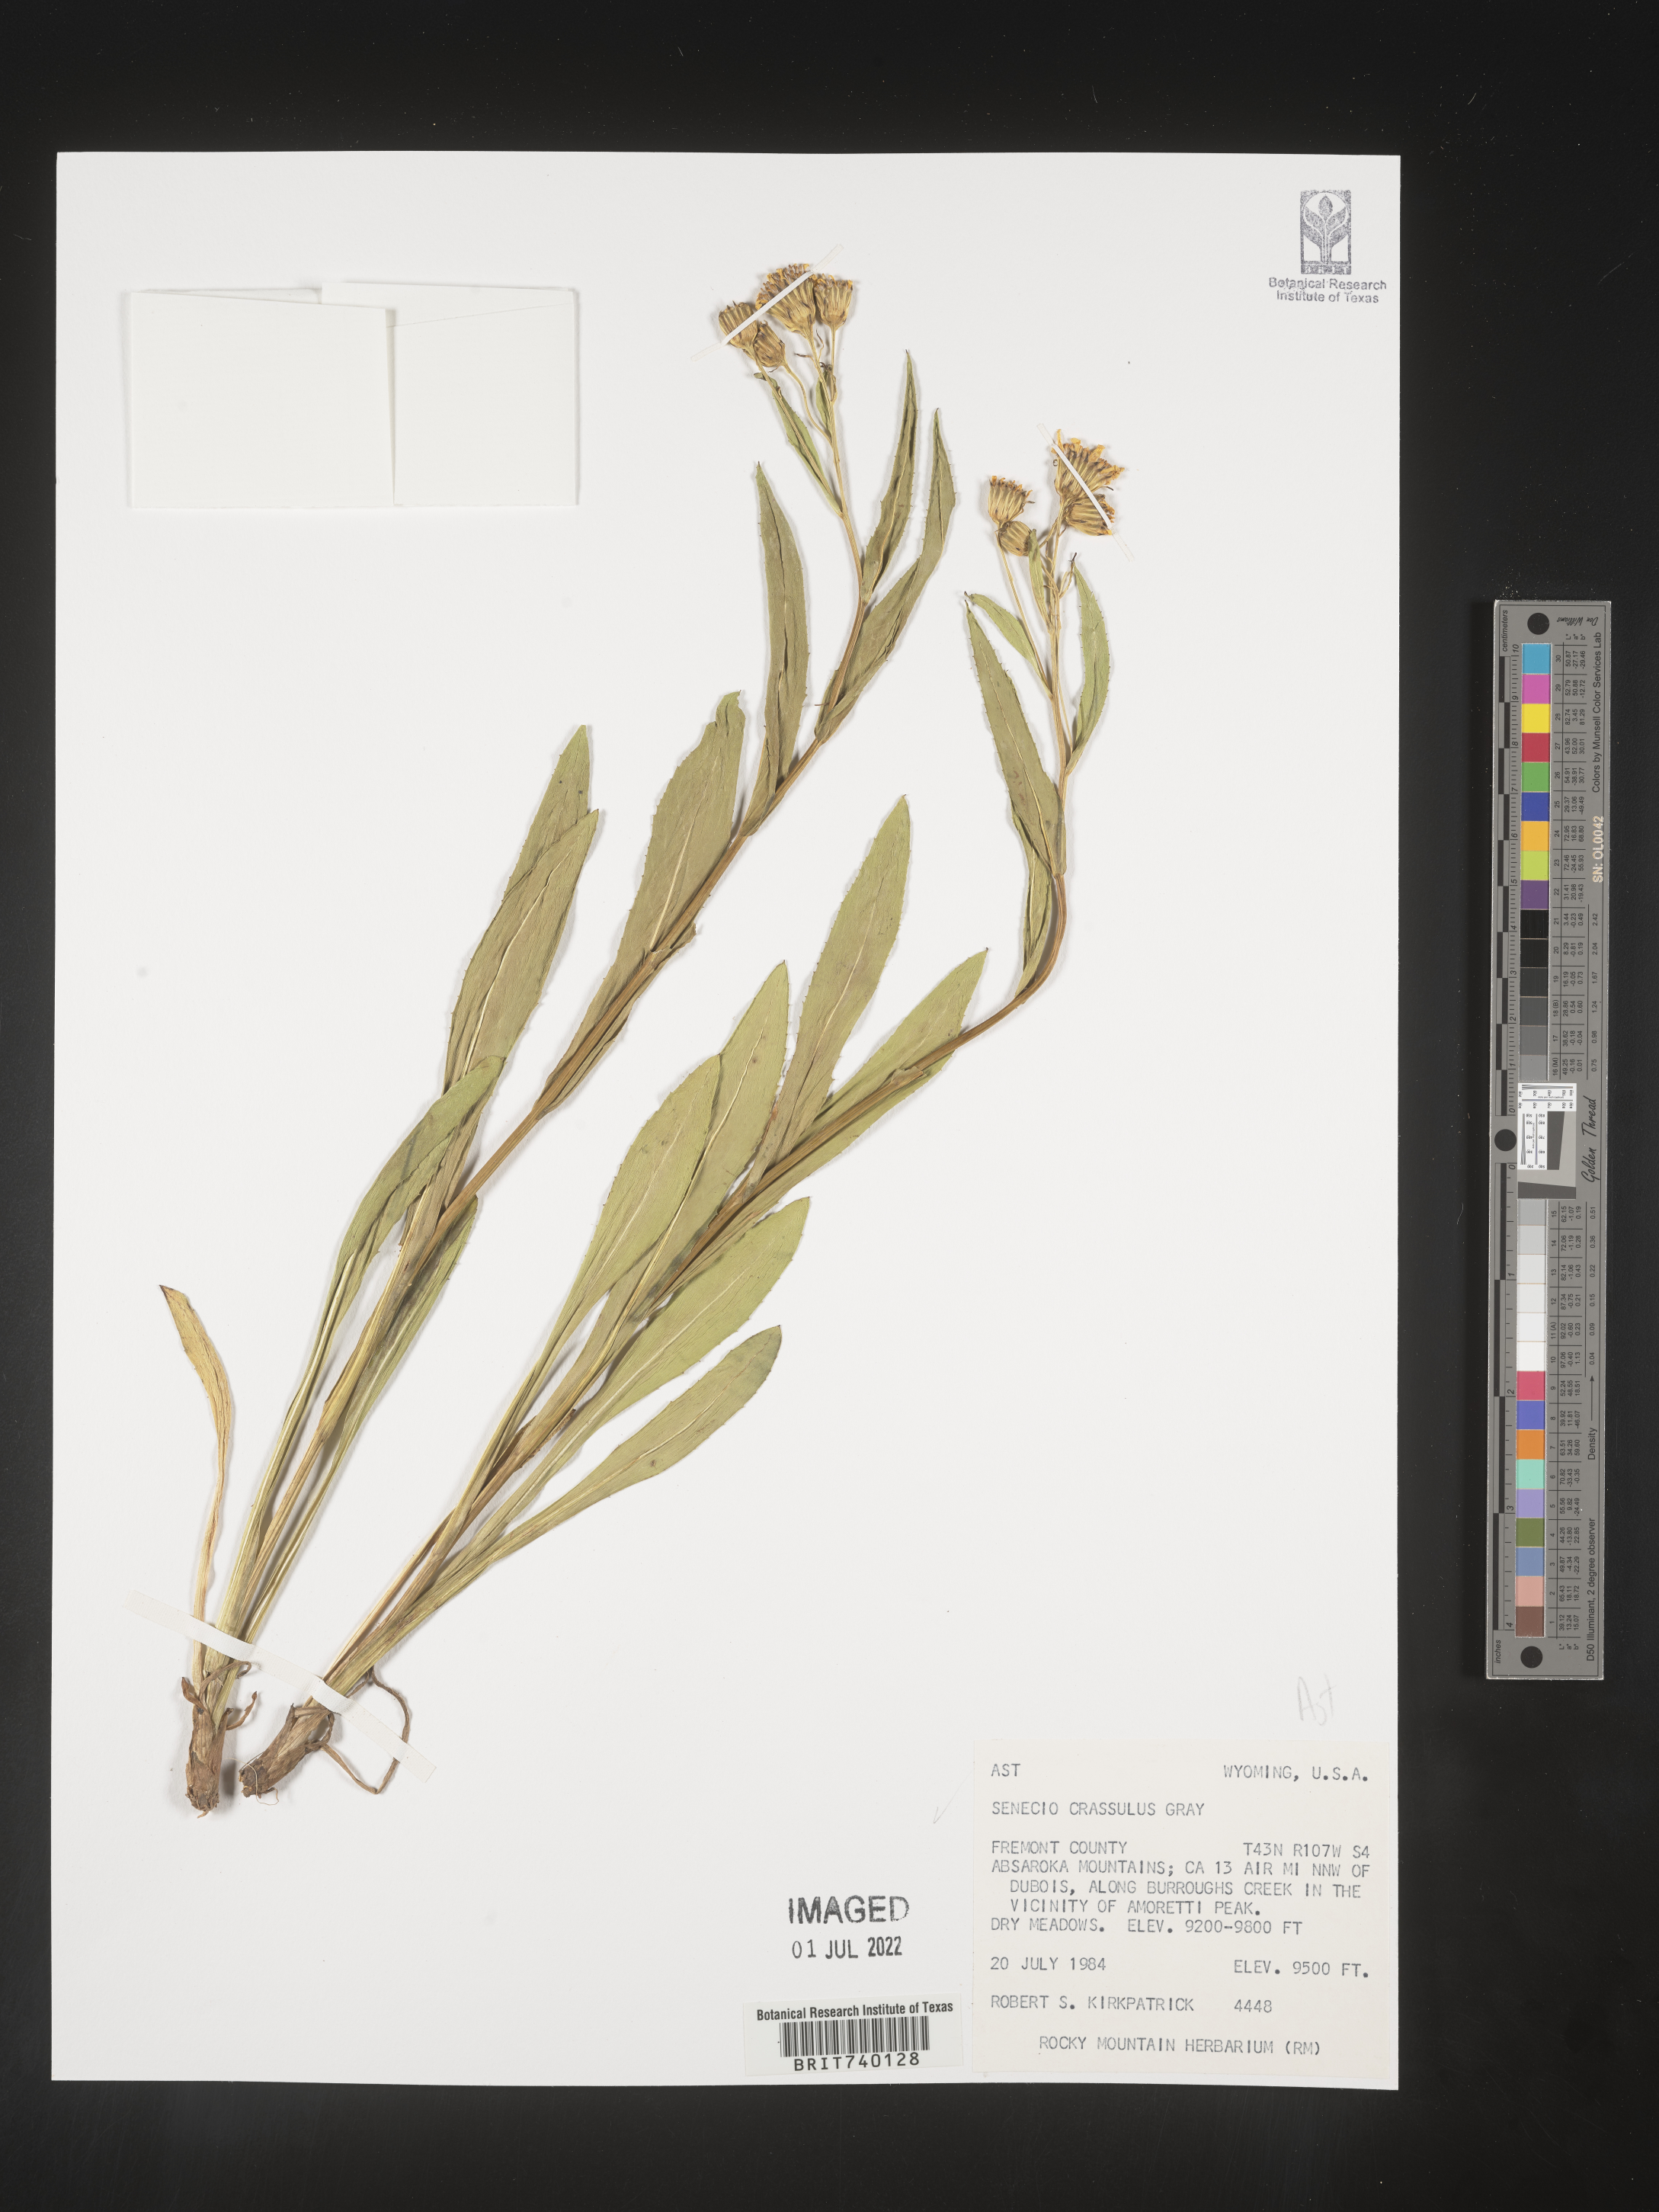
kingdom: Plantae
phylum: Tracheophyta
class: Magnoliopsida
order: Asterales
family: Asteraceae
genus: Senecio
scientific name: Senecio crassulus
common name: Mountain-meadow butterweed
